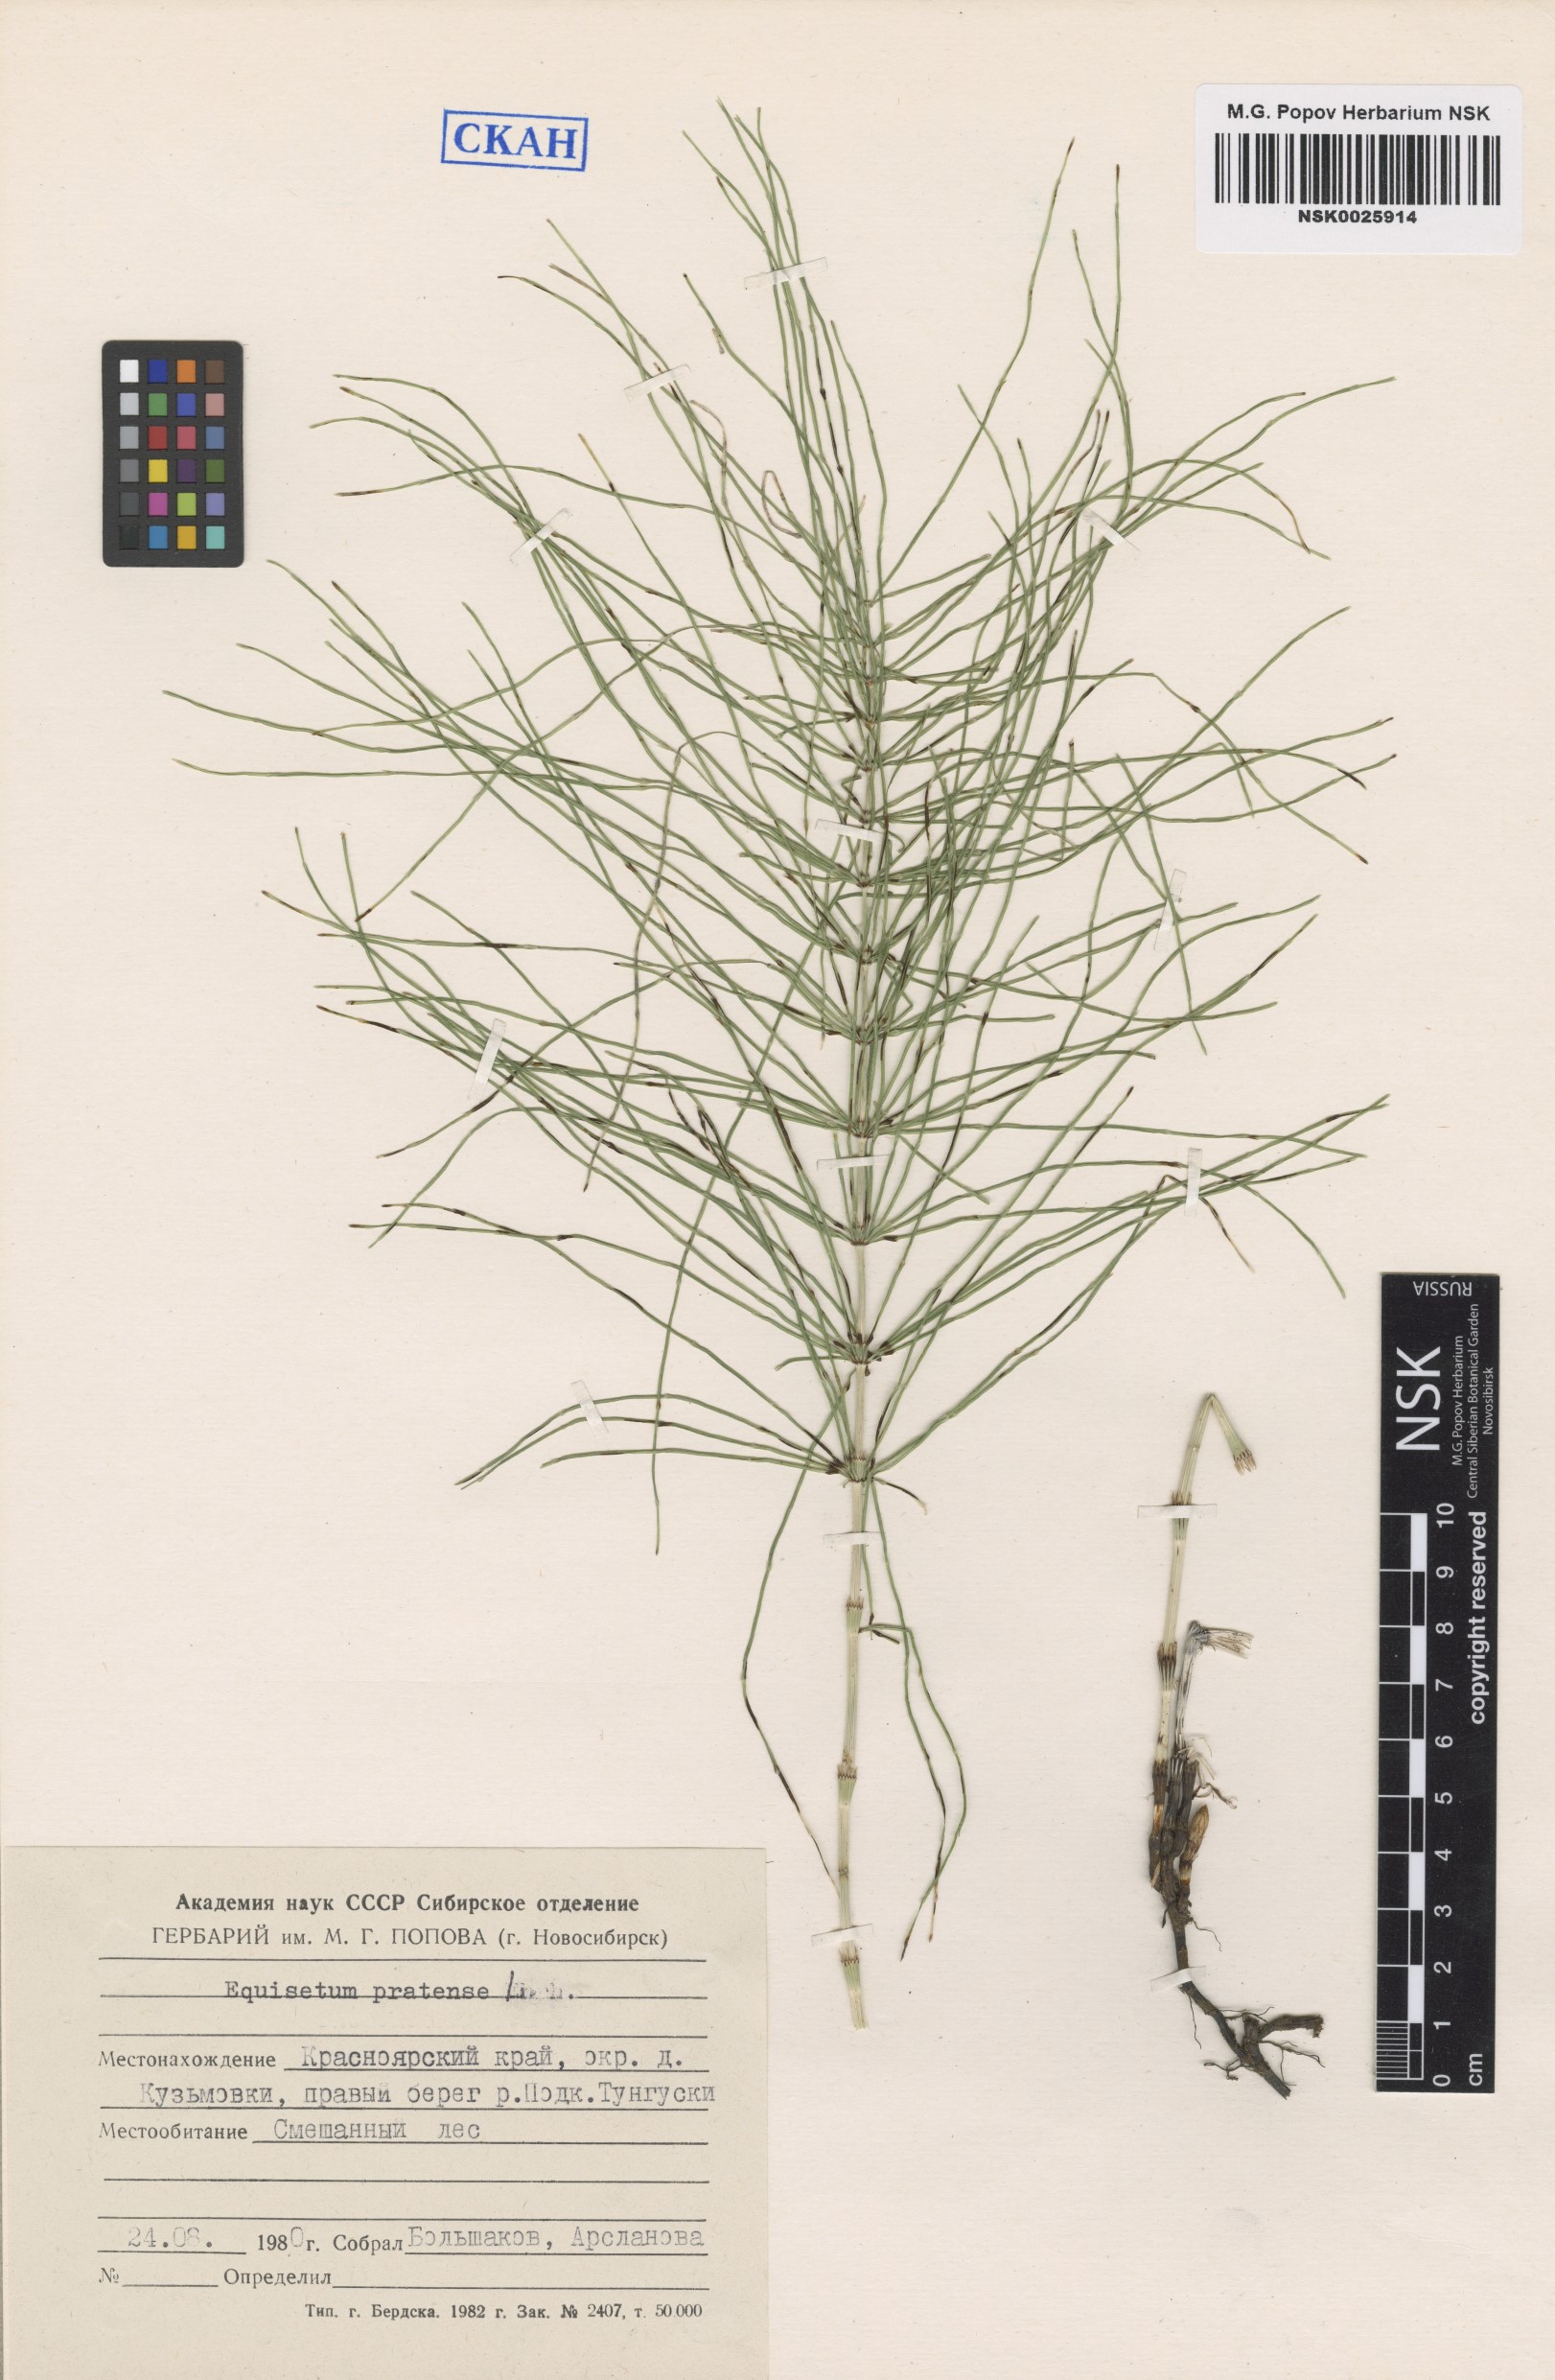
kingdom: Plantae
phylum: Tracheophyta
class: Polypodiopsida
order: Equisetales
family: Equisetaceae
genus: Equisetum
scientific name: Equisetum pratense
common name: Meadow horsetail
